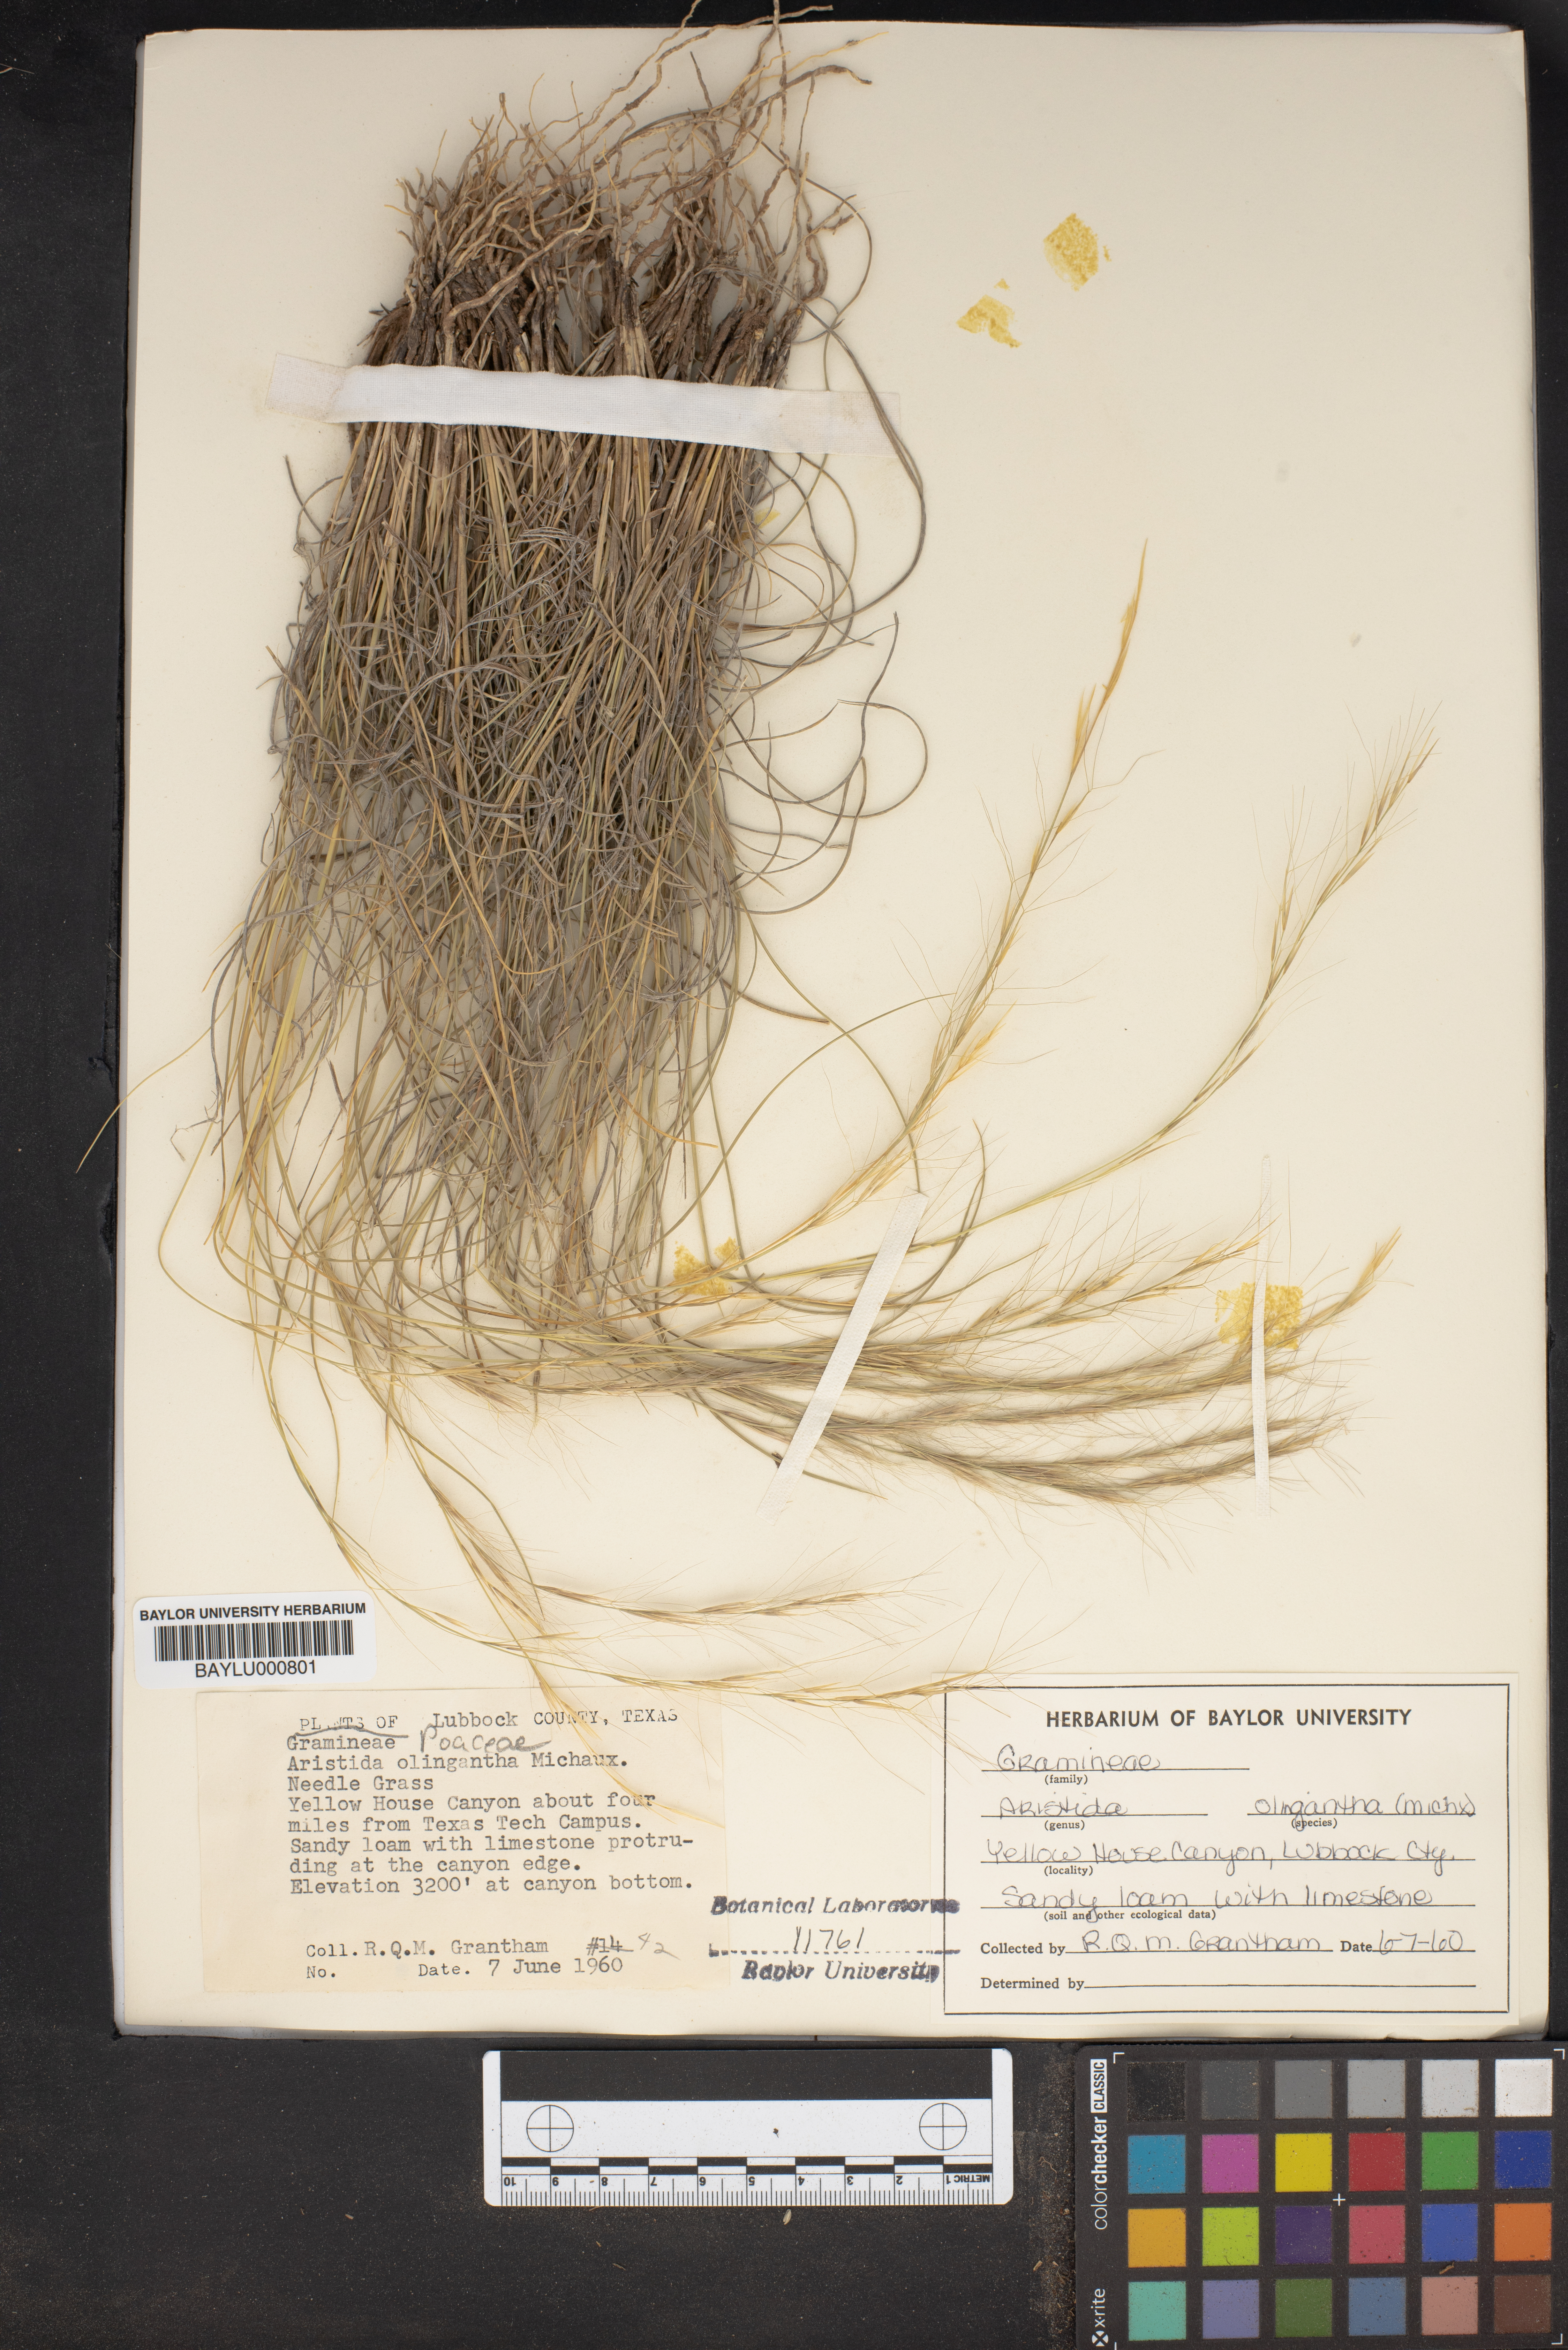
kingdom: Plantae
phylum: Tracheophyta
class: Liliopsida
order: Poales
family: Poaceae
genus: Aristida
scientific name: Aristida oligantha
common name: Few-flowered aristida
